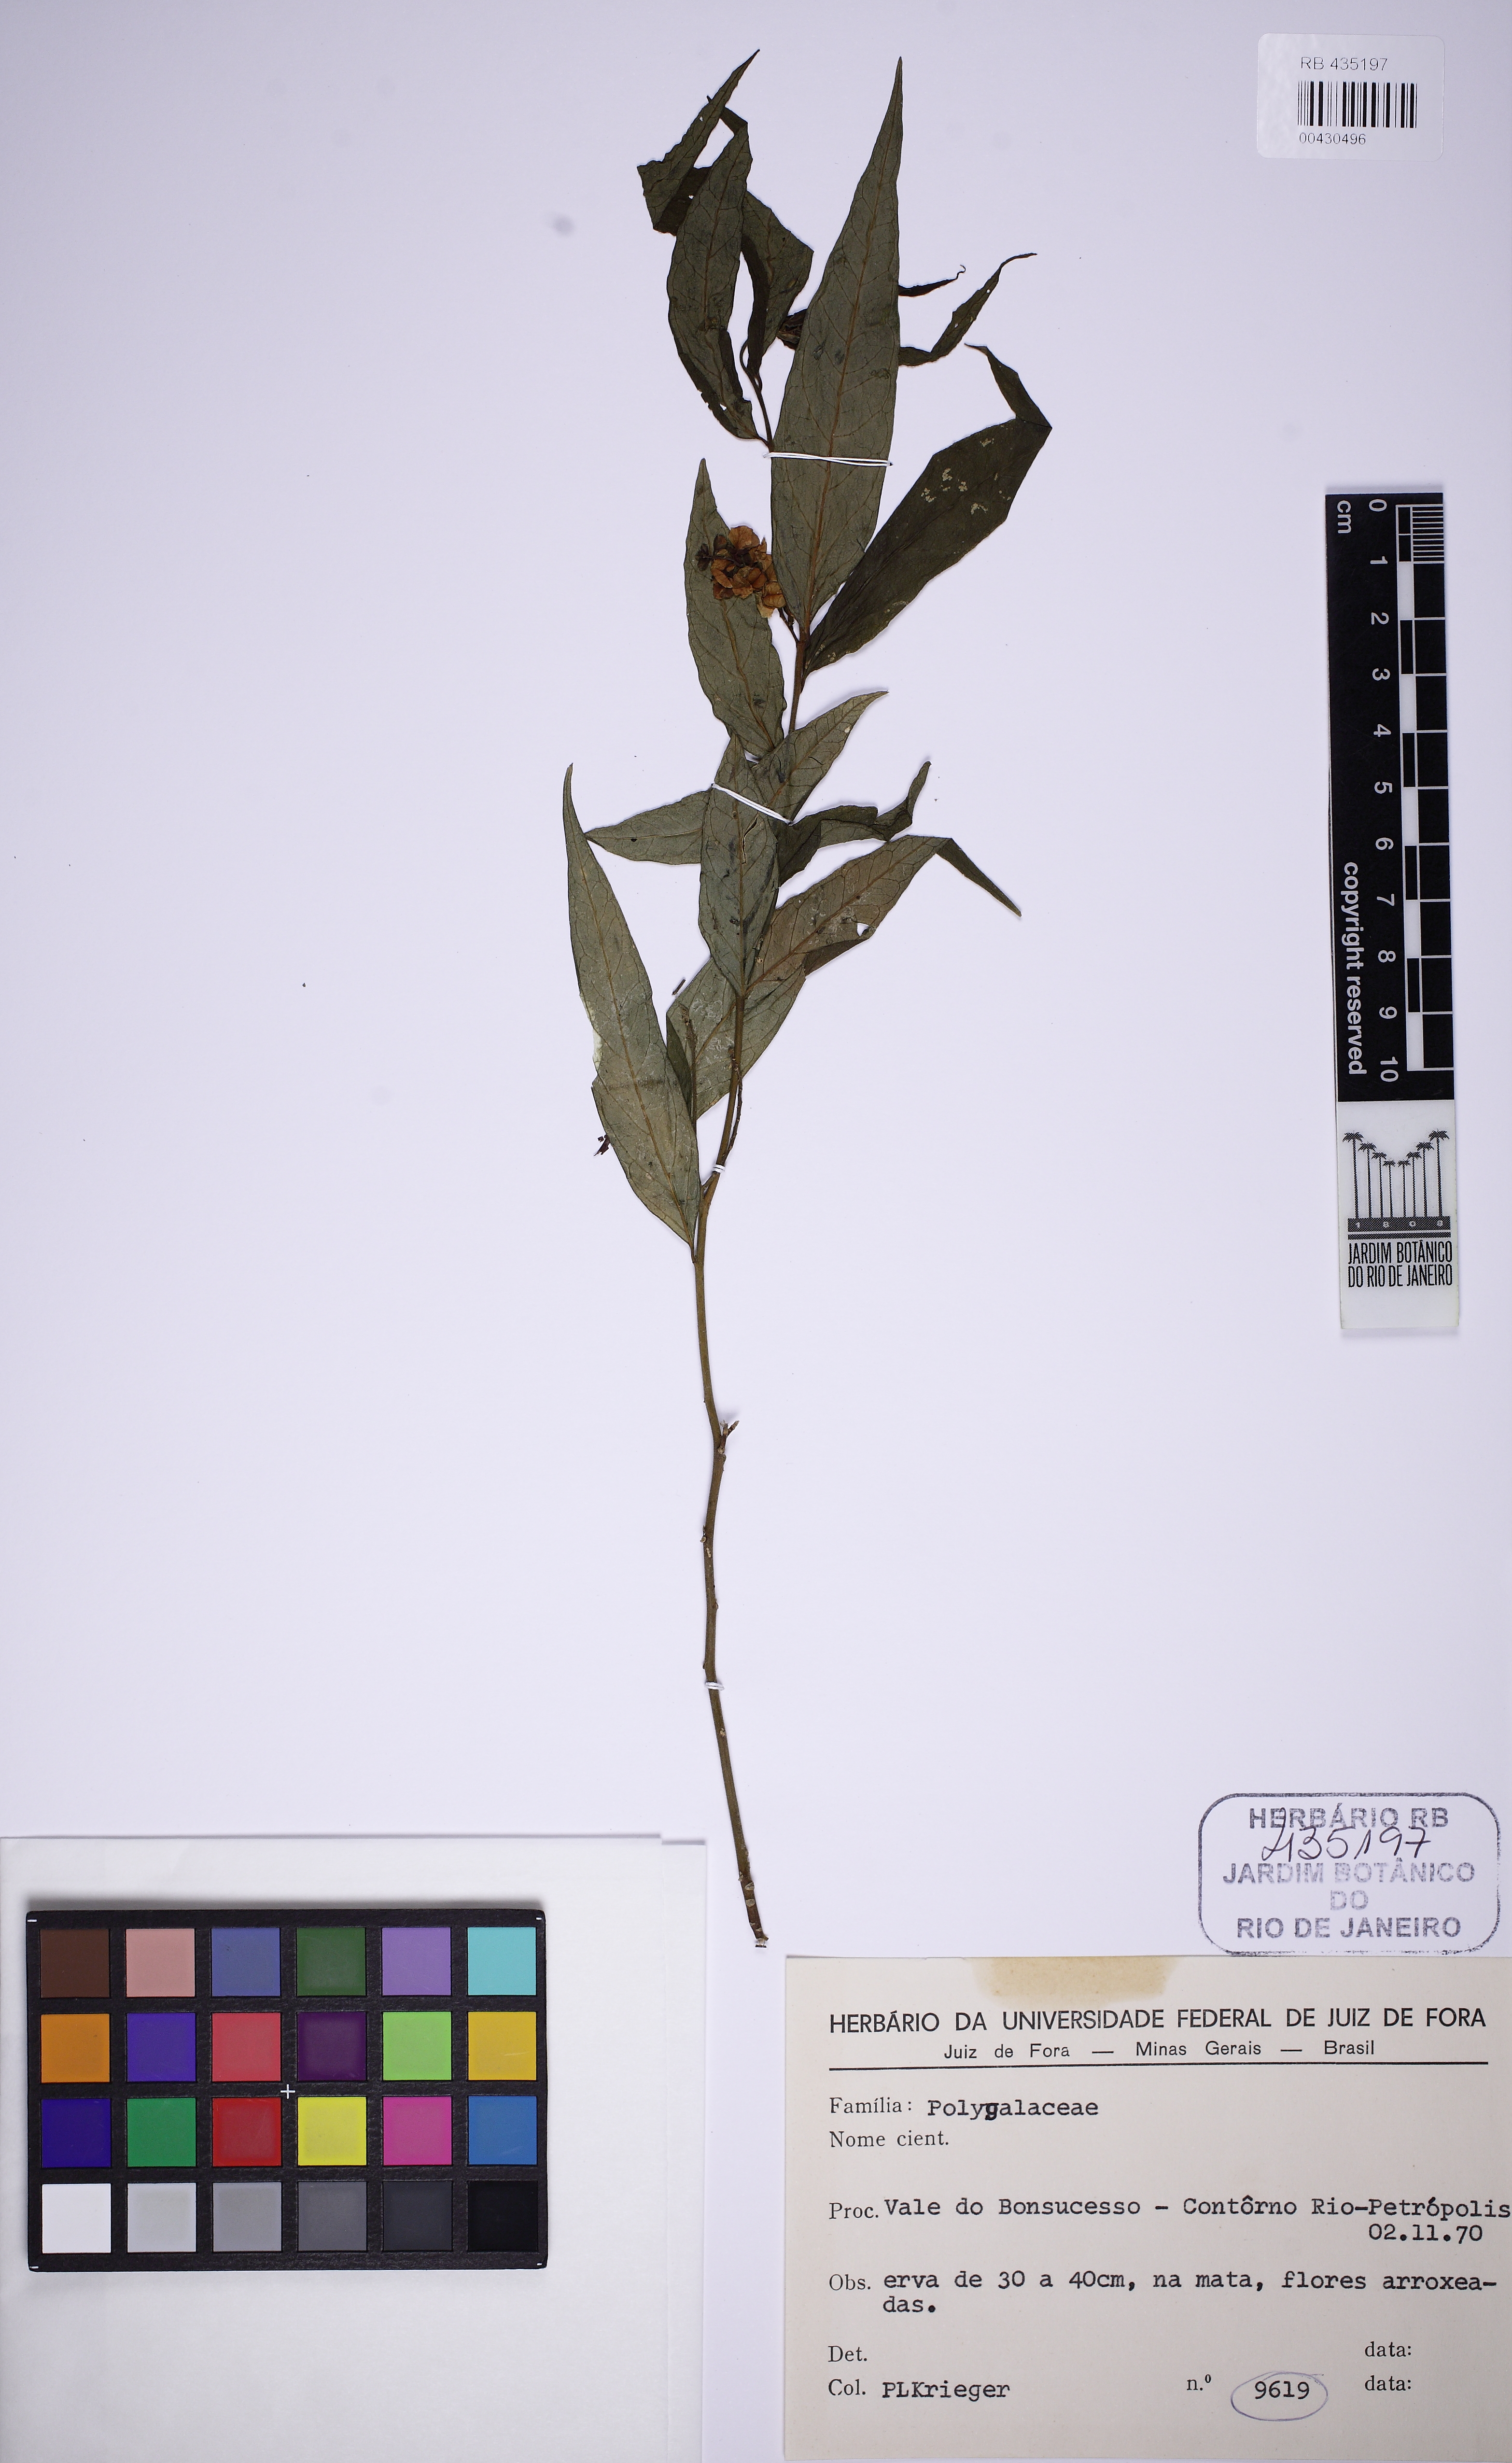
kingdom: Plantae
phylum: Tracheophyta
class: Magnoliopsida
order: Fabales
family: Polygalaceae
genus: Caamembeca
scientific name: Caamembeca
